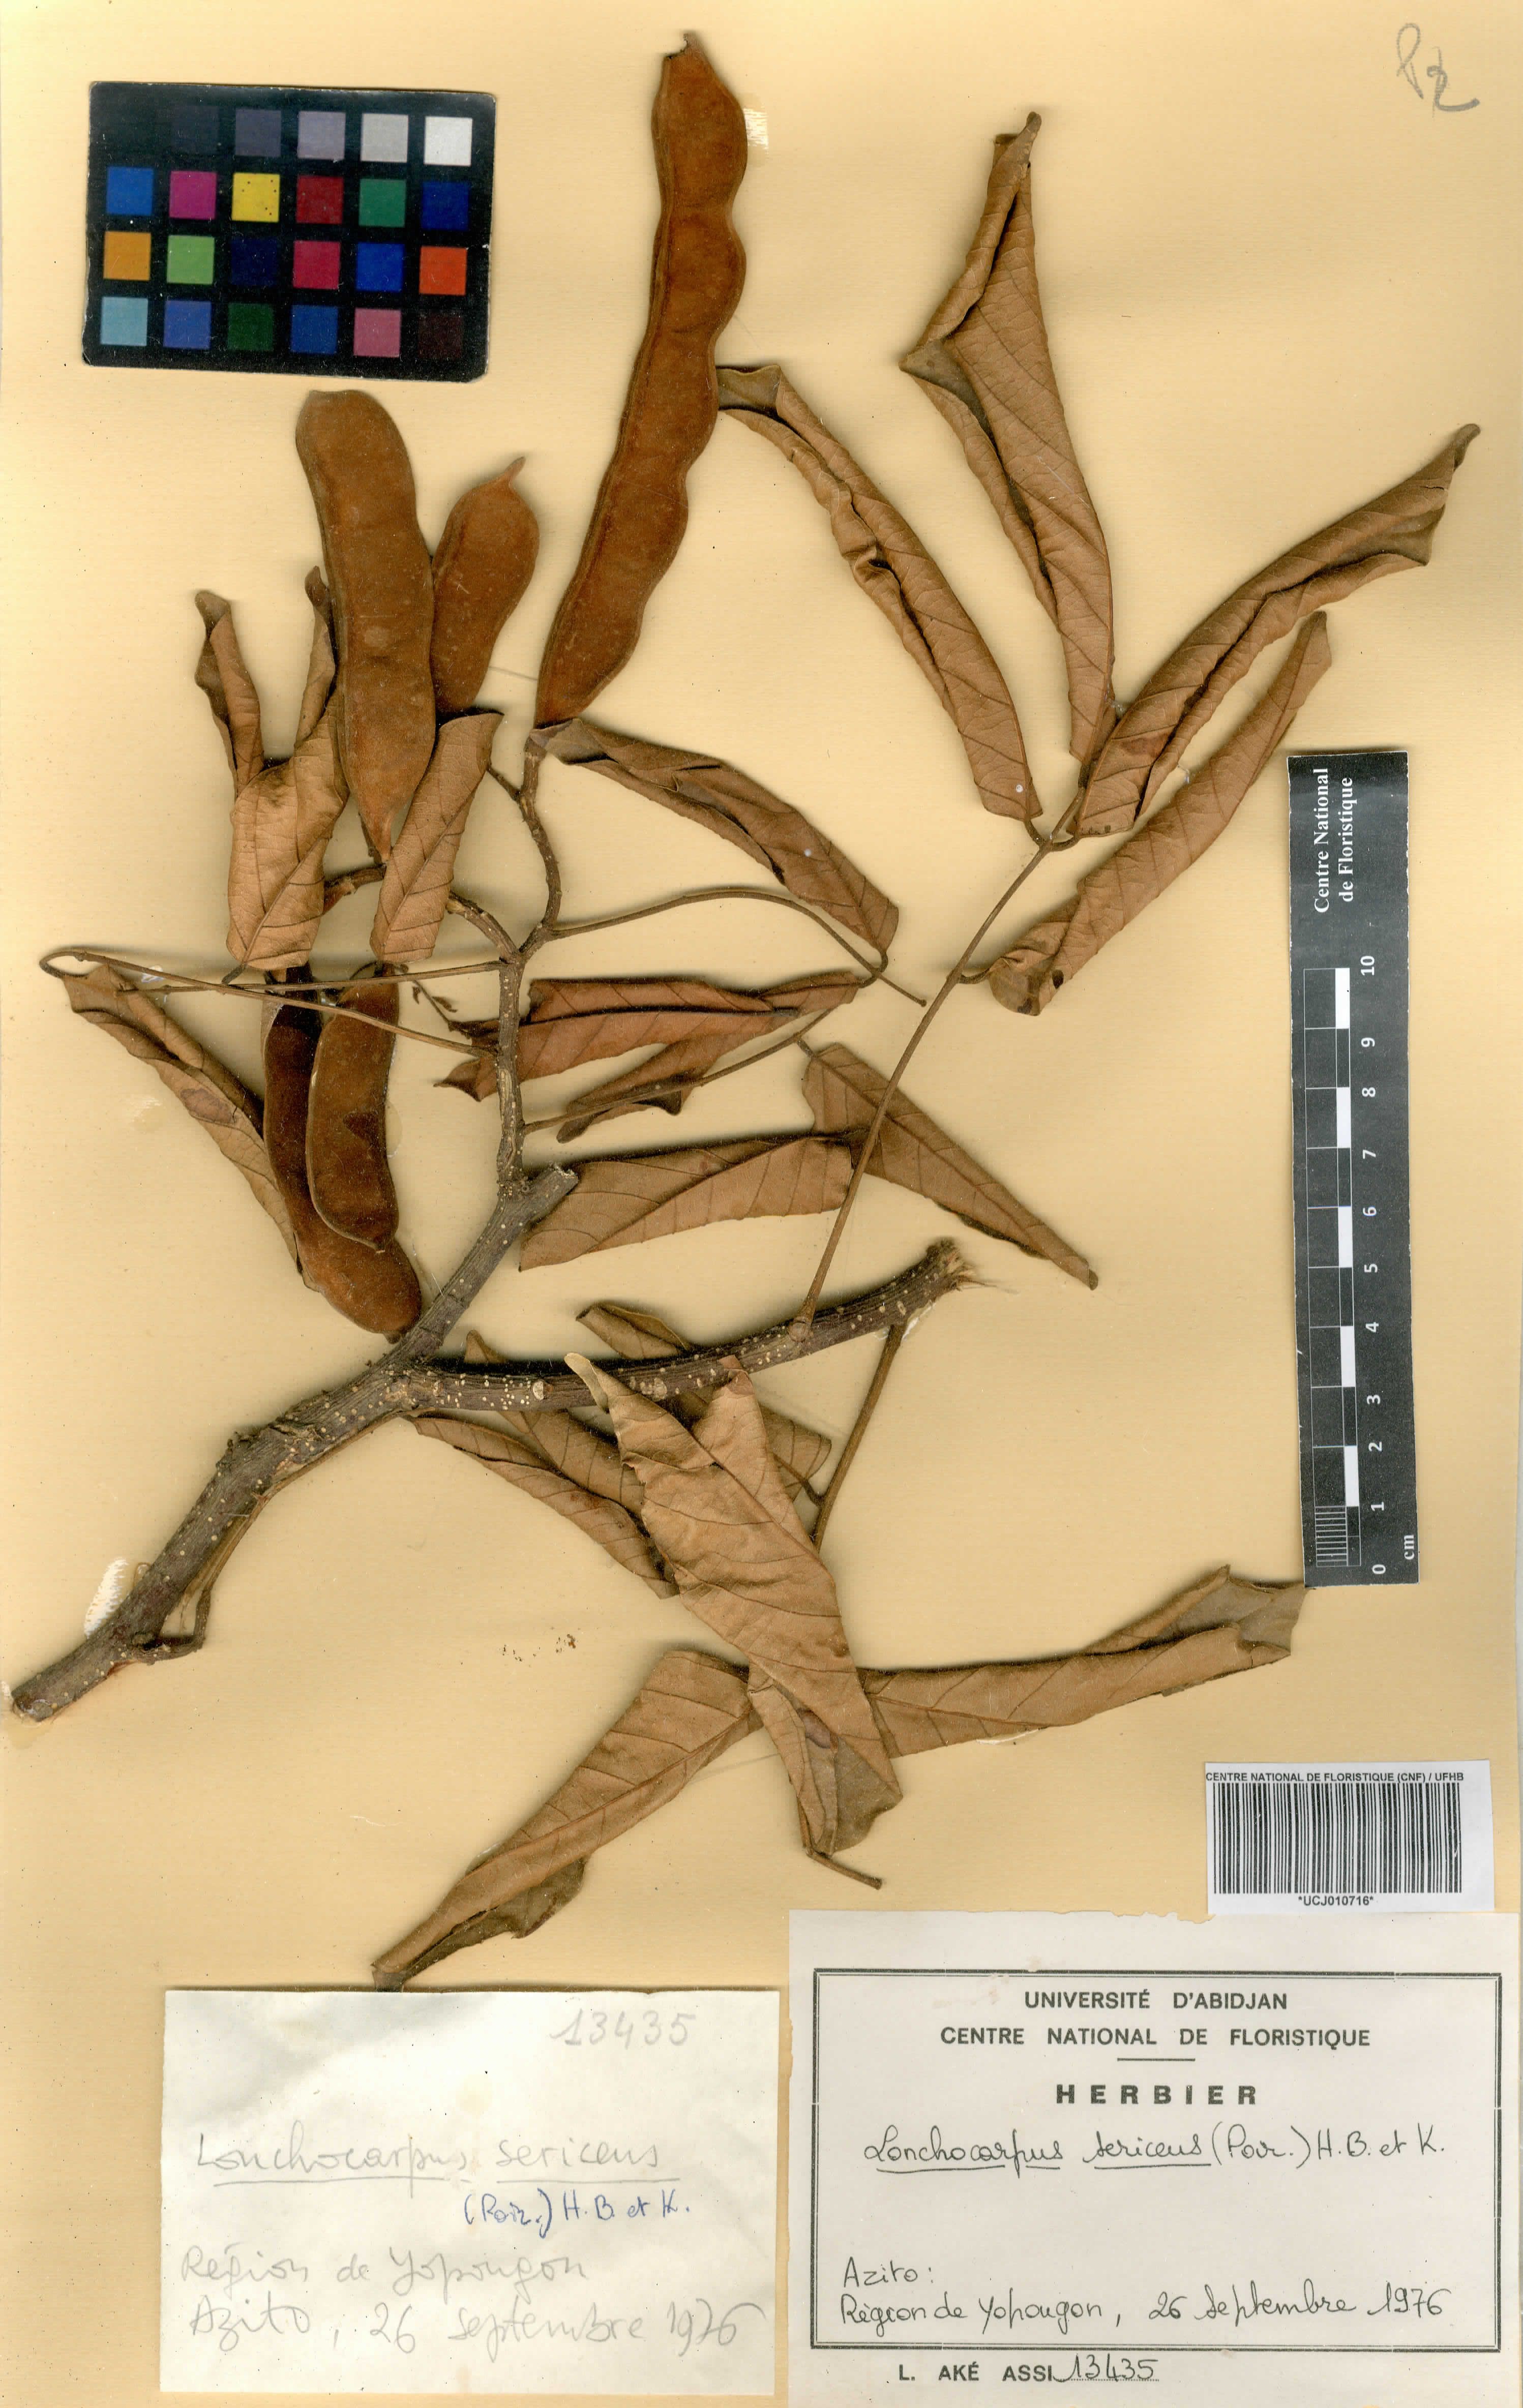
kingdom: Plantae
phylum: Tracheophyta
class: Magnoliopsida
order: Fabales
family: Fabaceae
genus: Lonchocarpus
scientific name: Lonchocarpus sericeus
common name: Savonette
